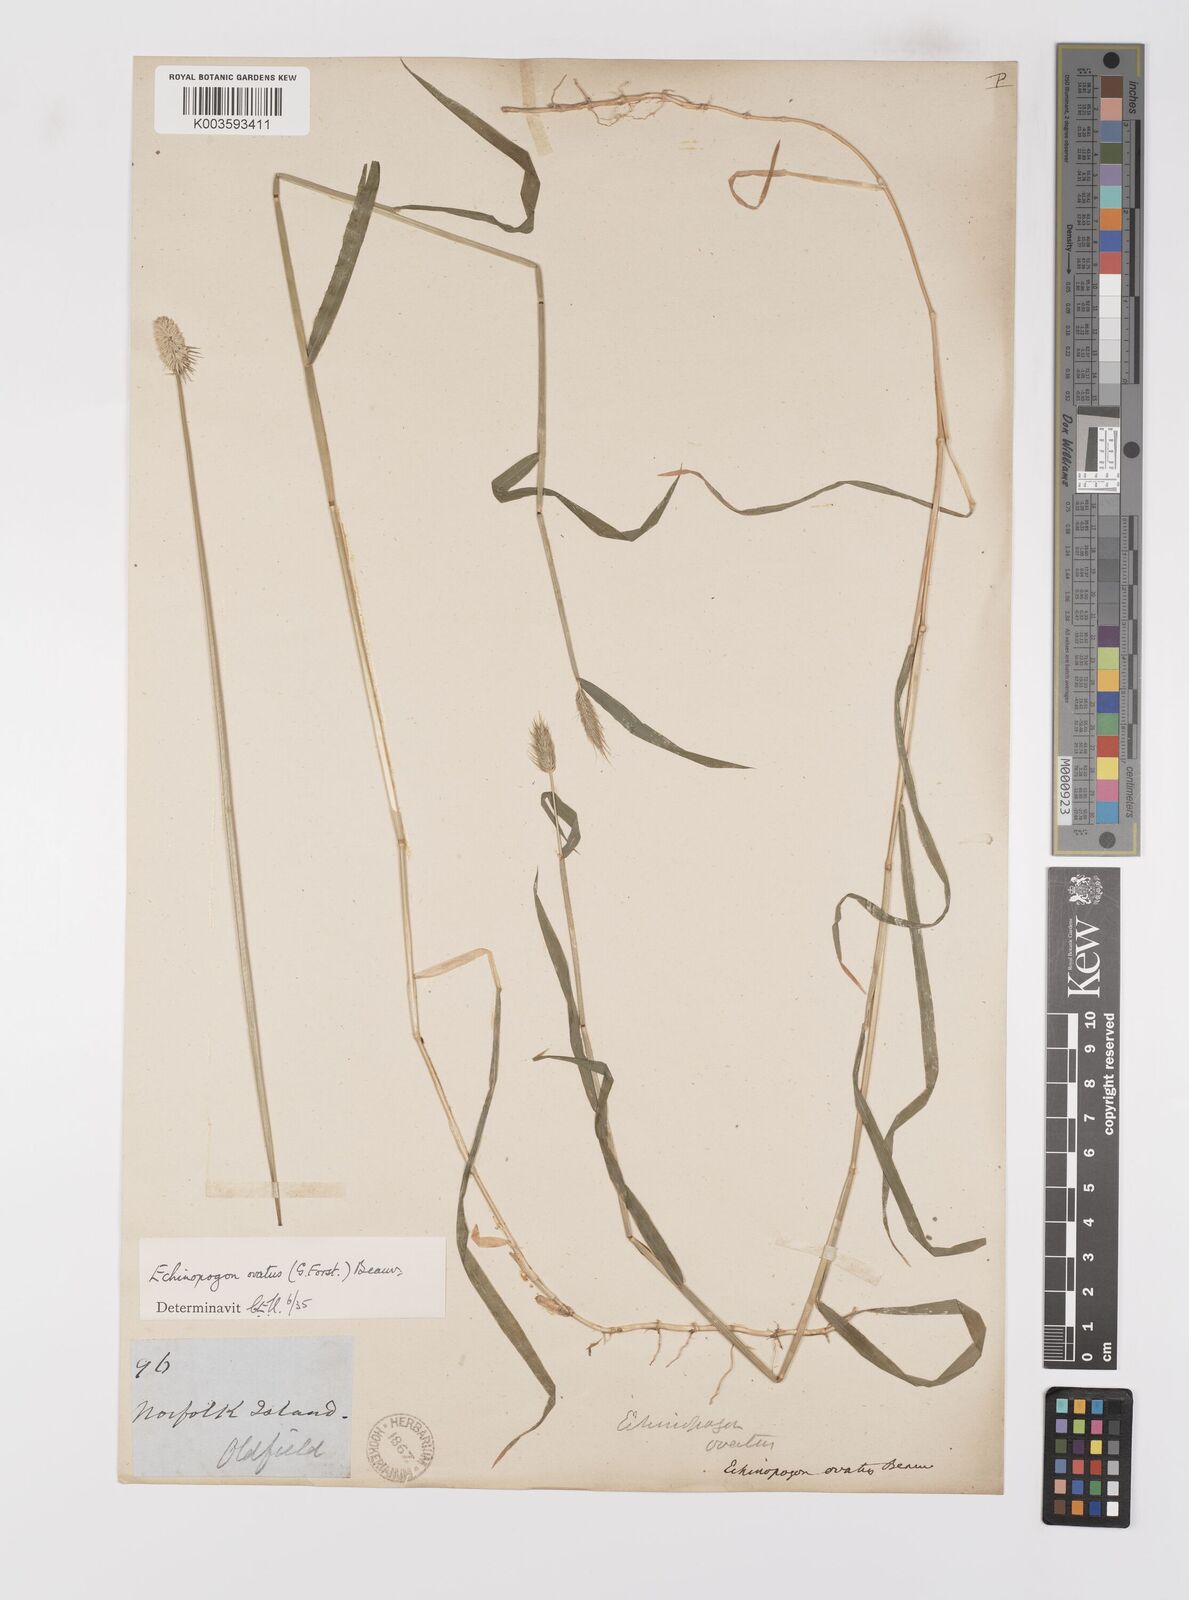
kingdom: Plantae
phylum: Tracheophyta
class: Liliopsida
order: Poales
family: Poaceae
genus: Echinopogon
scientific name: Echinopogon ovatus
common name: Hedgehog-grass
